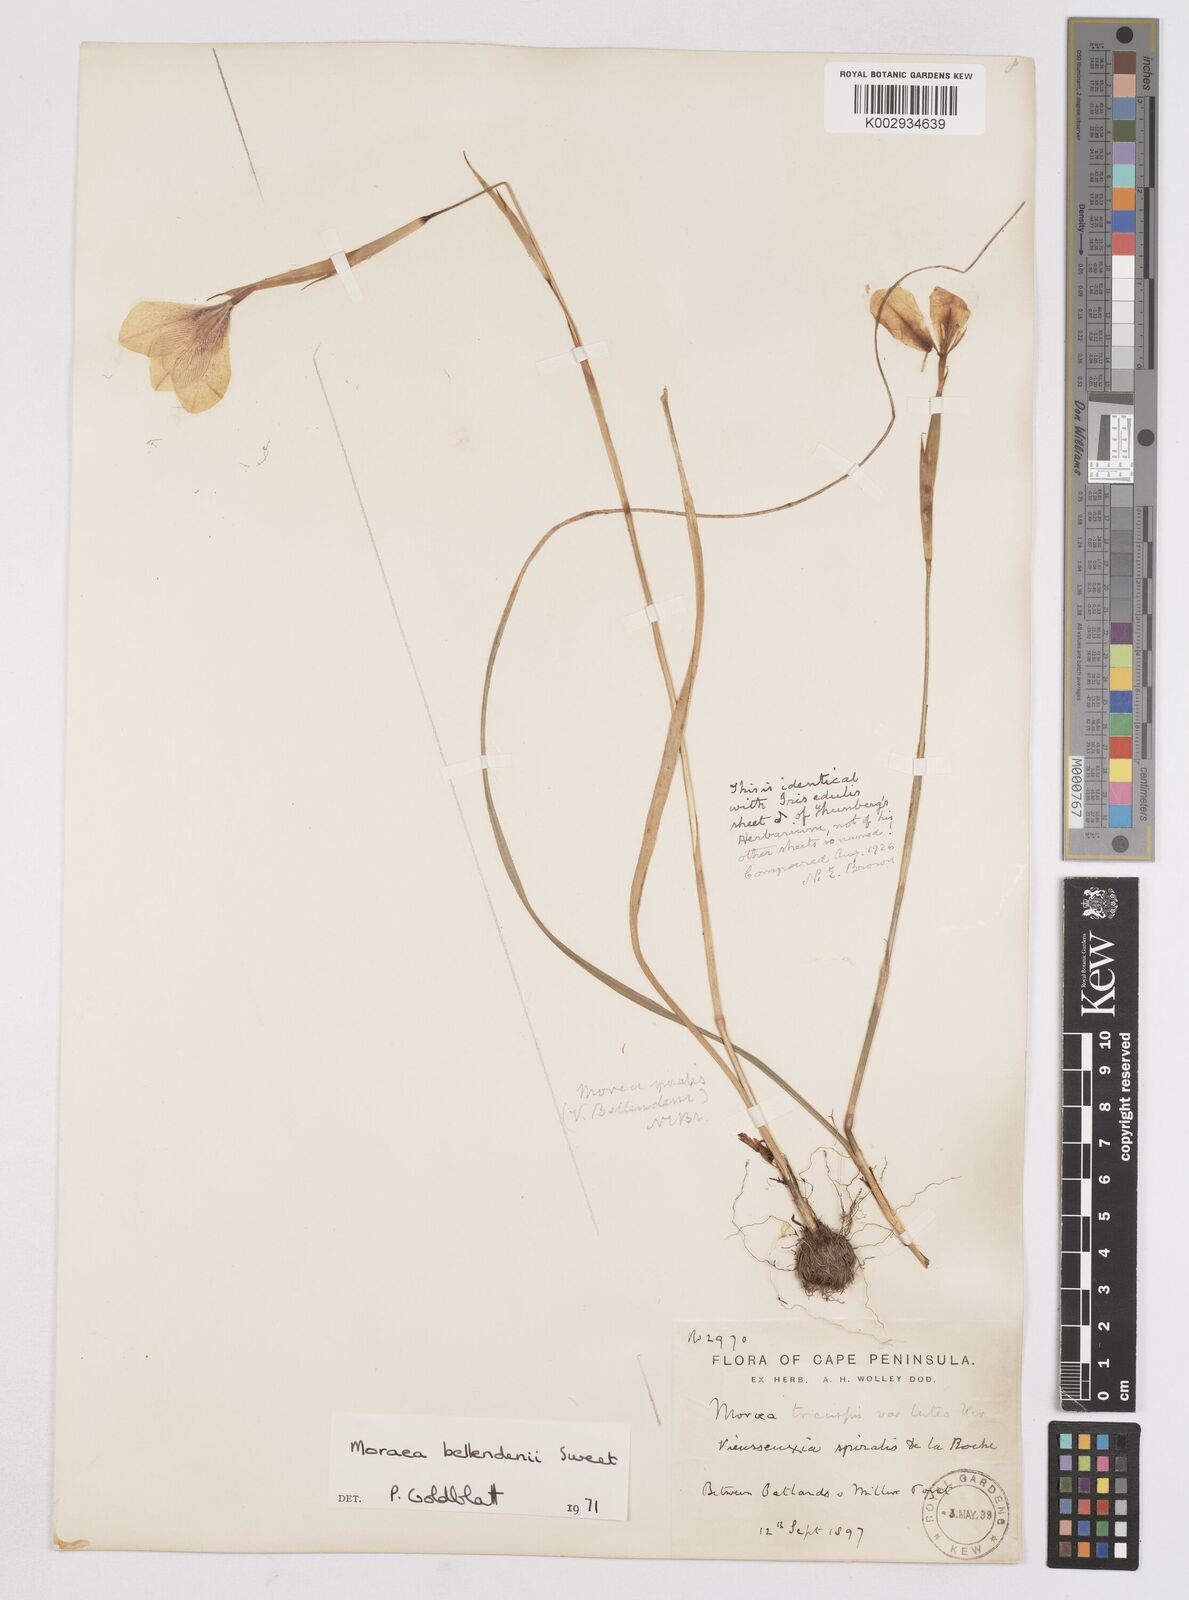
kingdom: Plantae
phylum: Tracheophyta
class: Liliopsida
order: Asparagales
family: Iridaceae
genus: Moraea
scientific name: Moraea bellendenii
